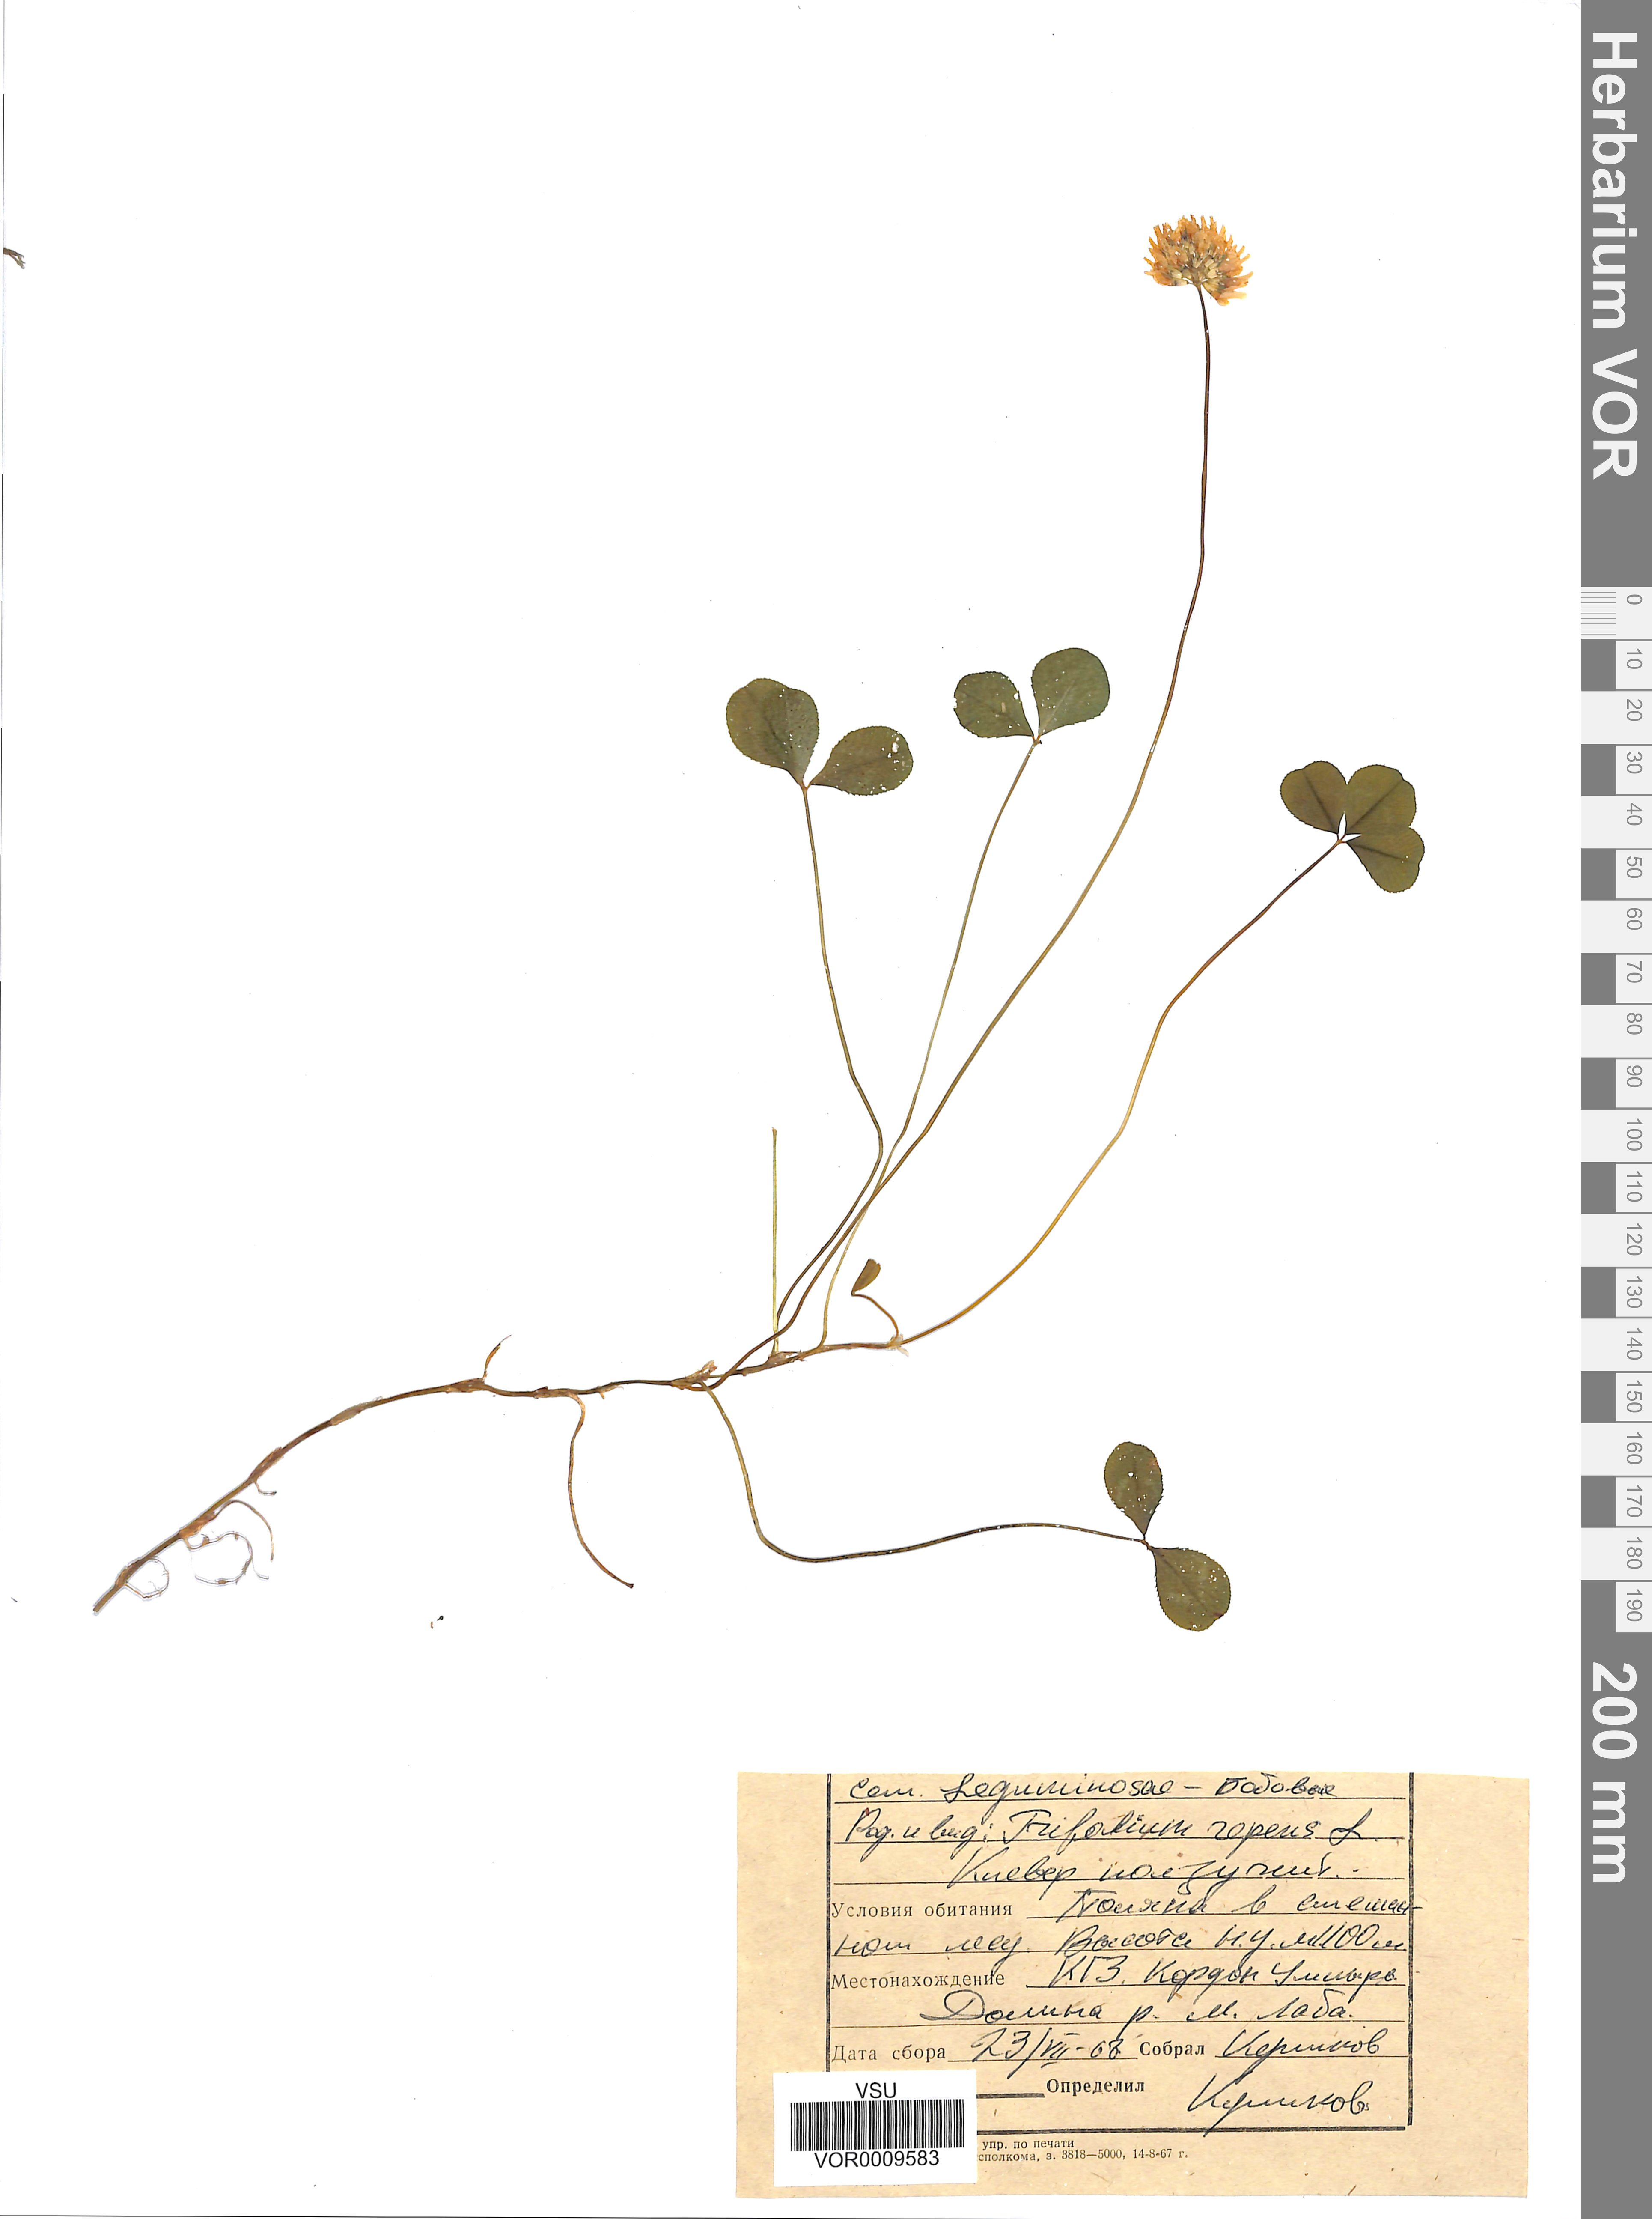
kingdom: Plantae
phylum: Tracheophyta
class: Magnoliopsida
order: Fabales
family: Fabaceae
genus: Trifolium
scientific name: Trifolium repens
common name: White clover
